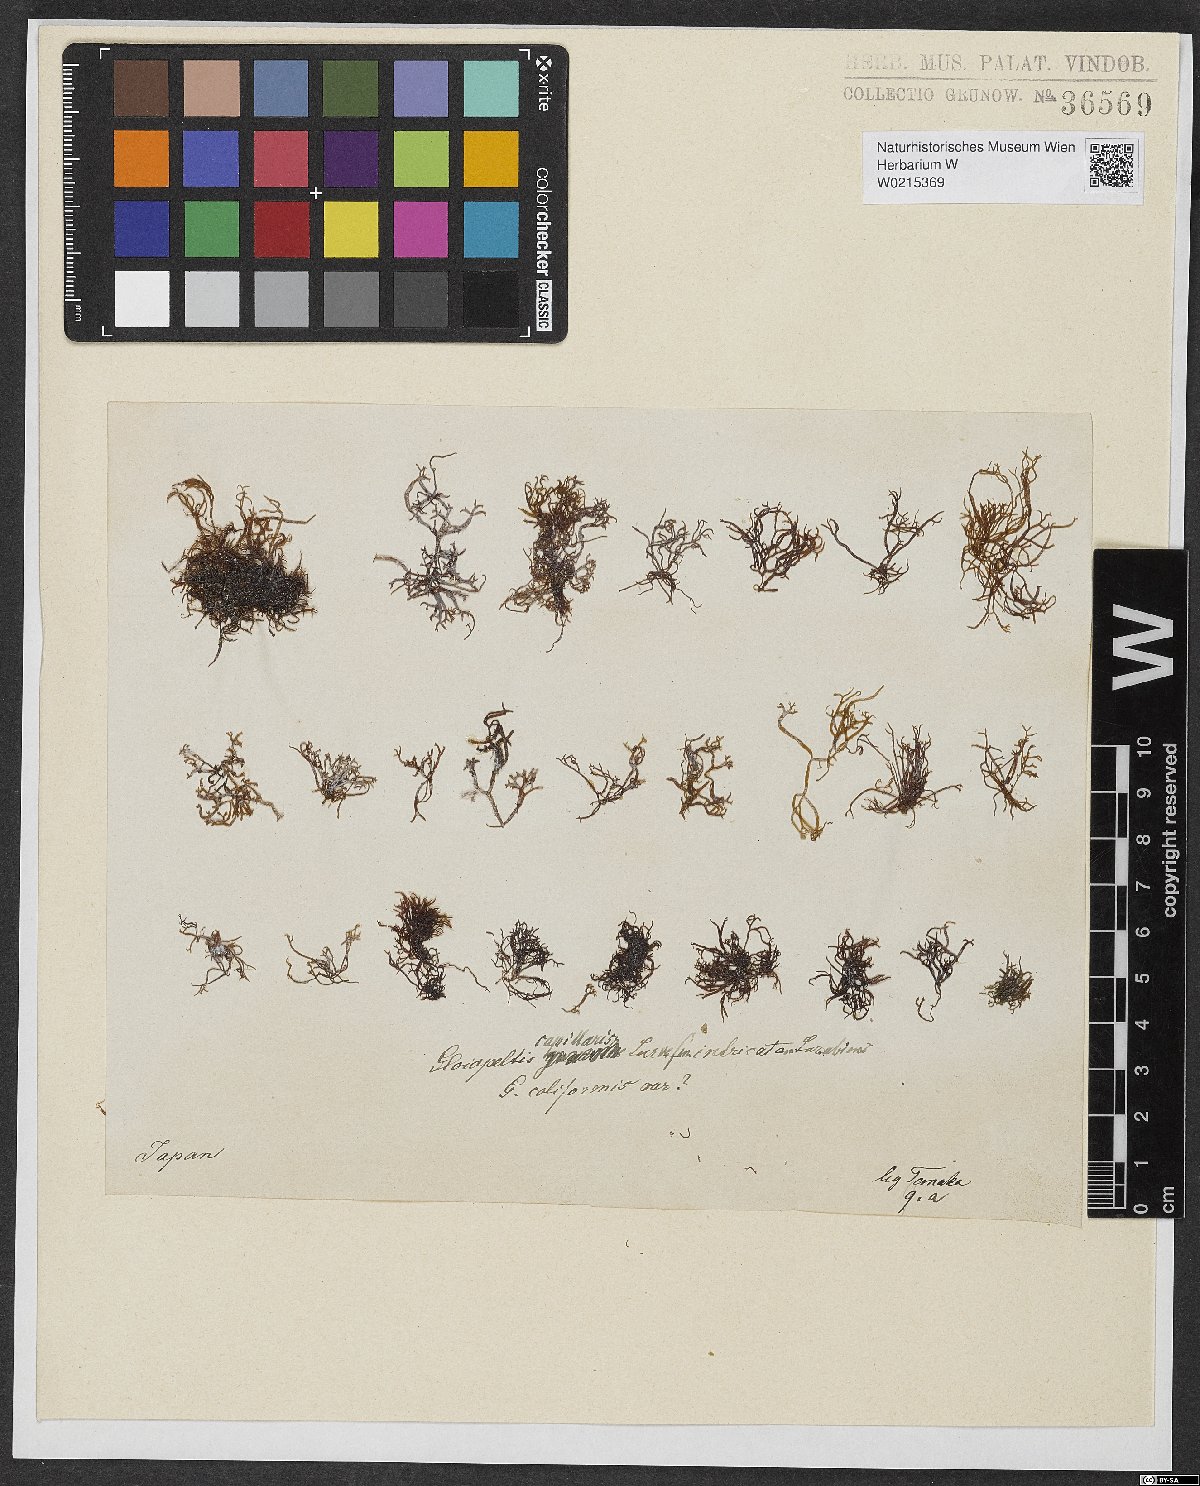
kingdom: Plantae
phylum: Rhodophyta
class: Florideophyceae
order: Gigartinales
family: Endocladiaceae
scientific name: Endocladiaceae
